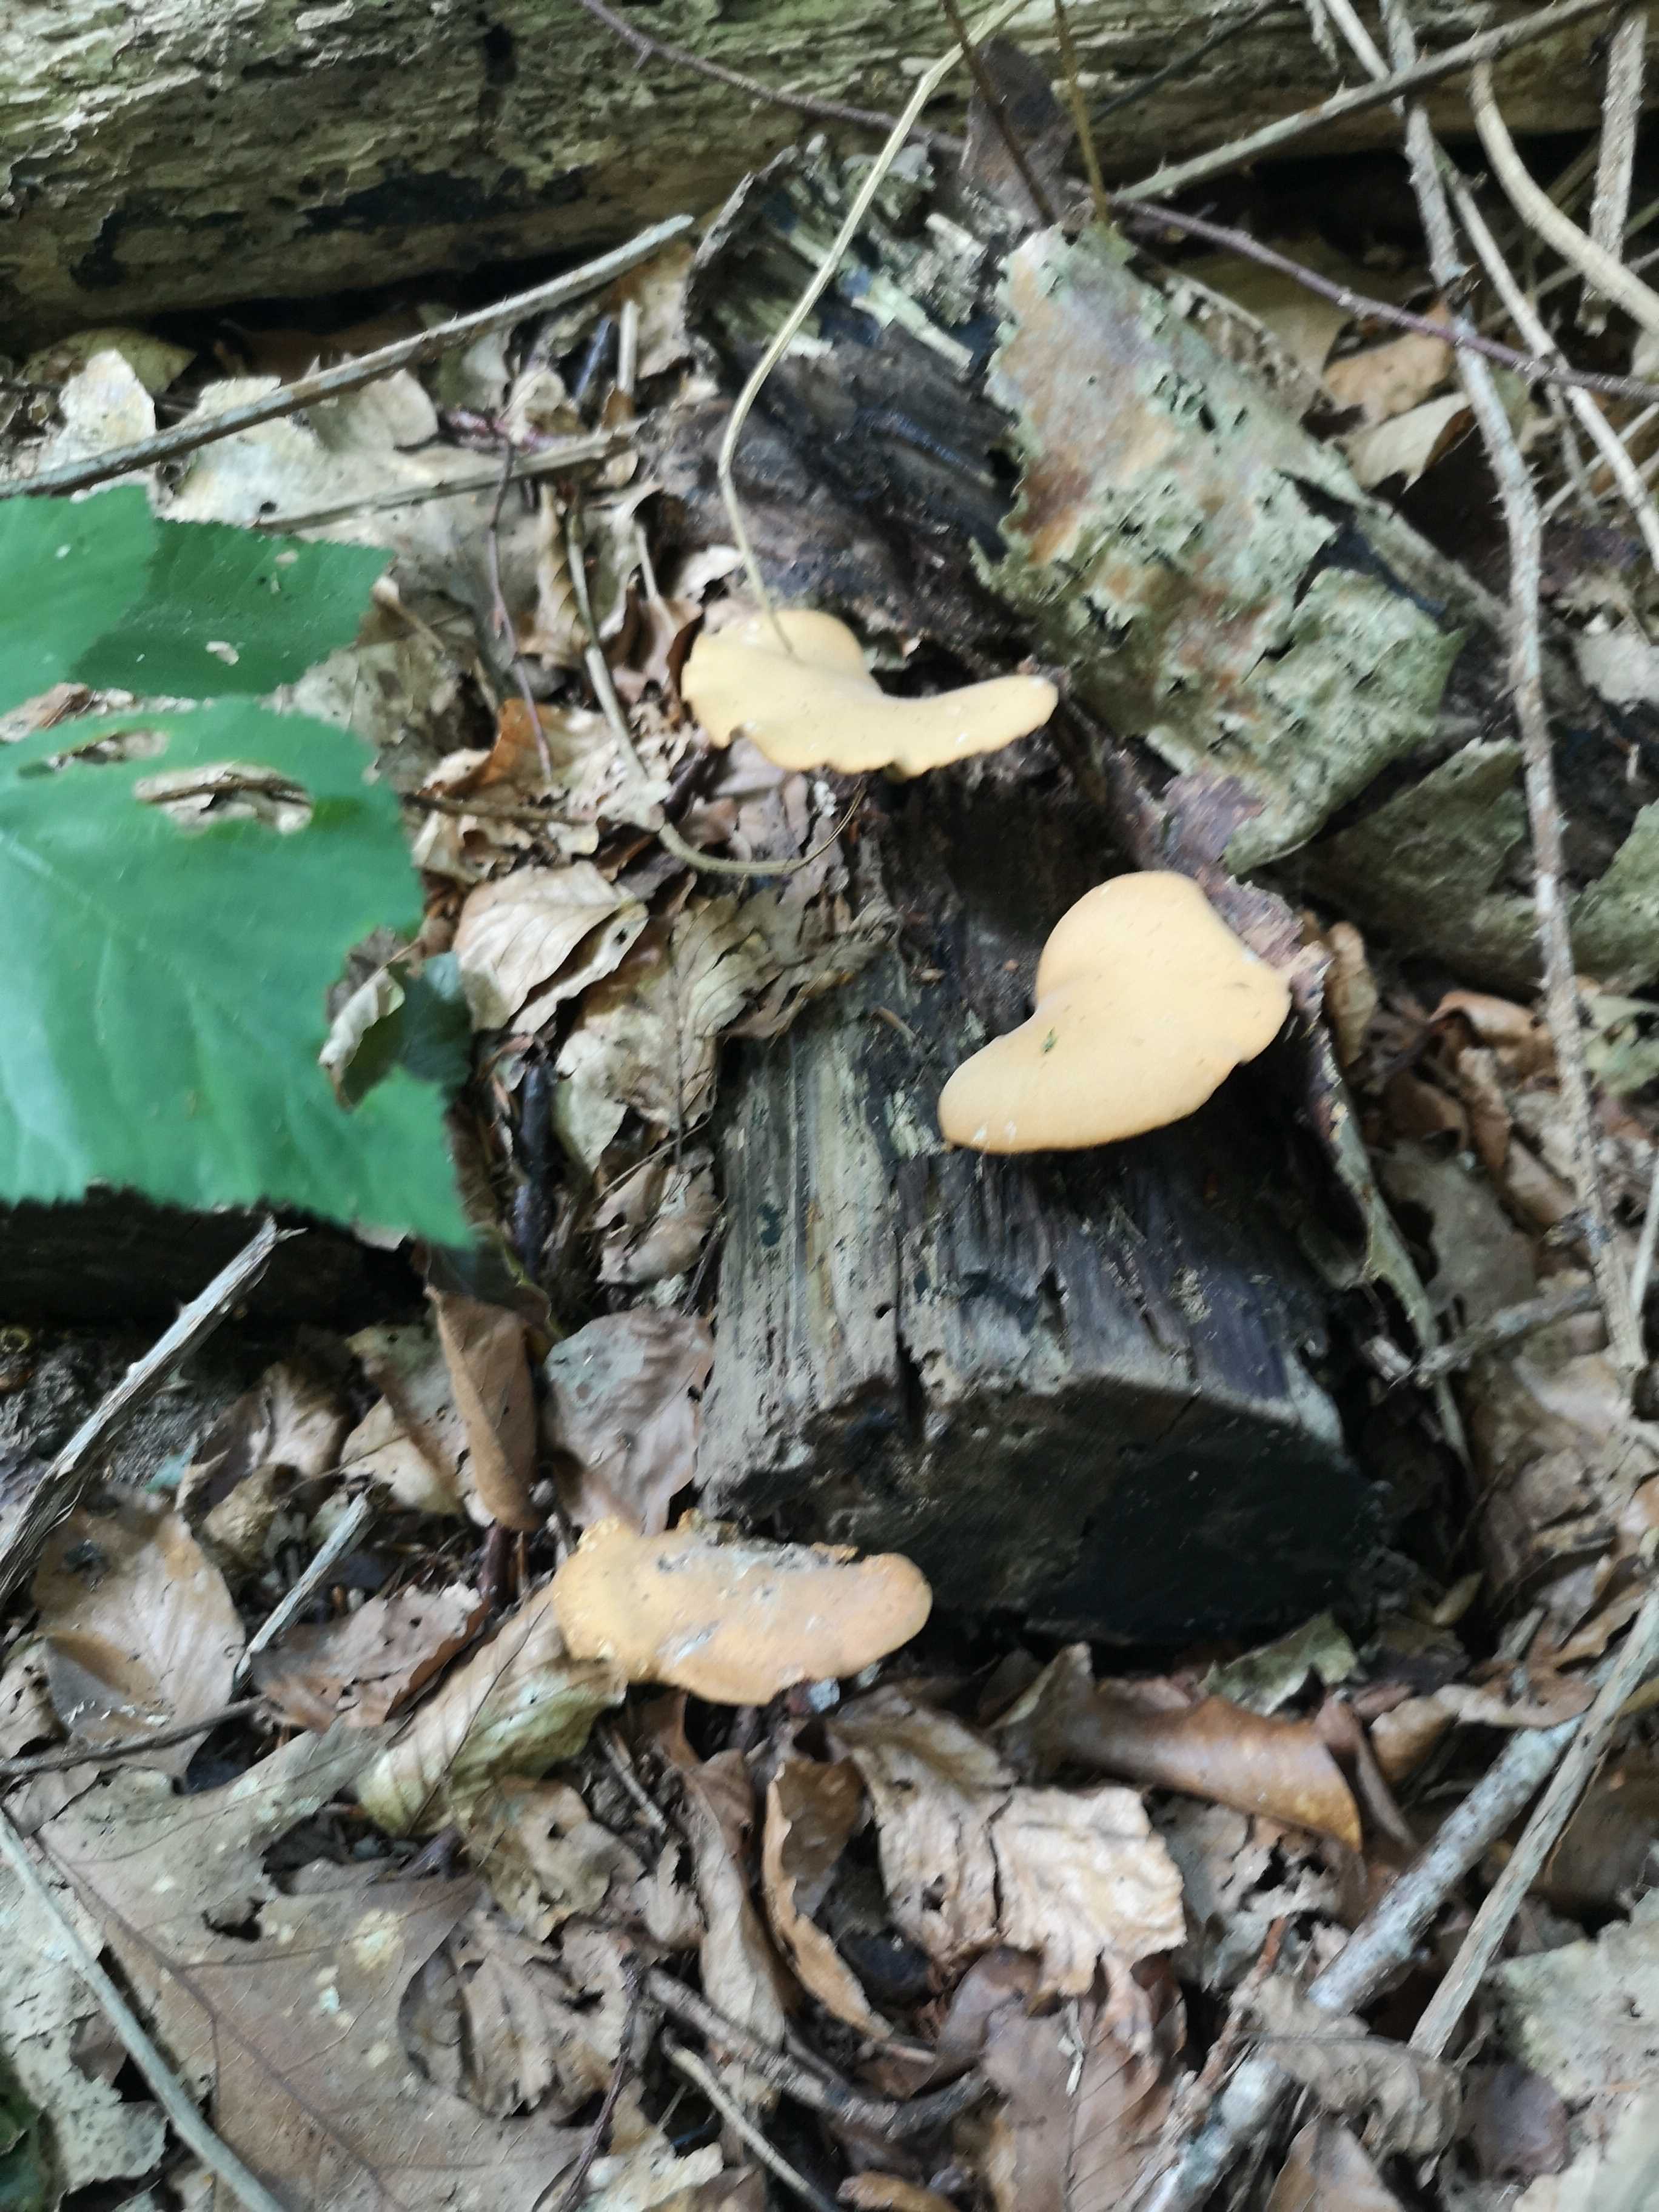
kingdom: Fungi
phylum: Basidiomycota
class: Agaricomycetes
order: Polyporales
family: Polyporaceae
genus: Cerioporus
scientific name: Cerioporus varius
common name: foranderlig stilkporesvamp
